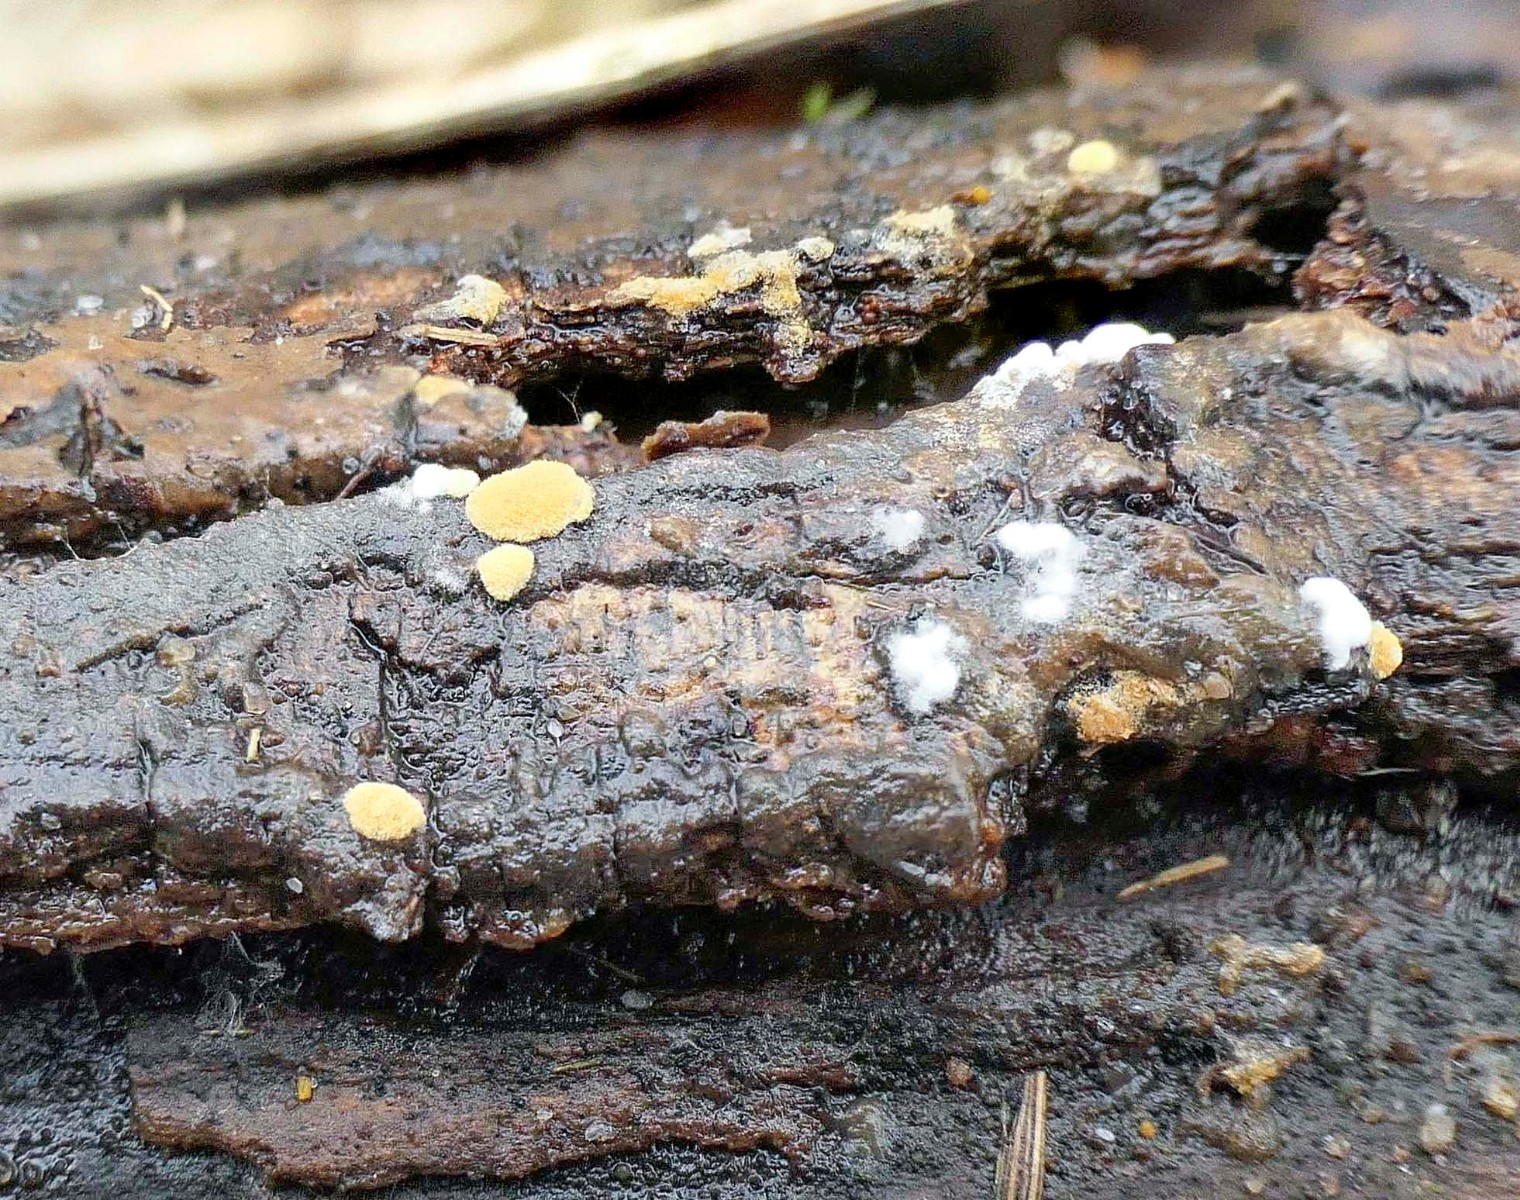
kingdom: Fungi
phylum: Basidiomycota
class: Agaricomycetes
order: Cantharellales
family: Botryobasidiaceae
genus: Botryobasidium
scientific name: Botryobasidium aureum
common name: gylden spindhinde
